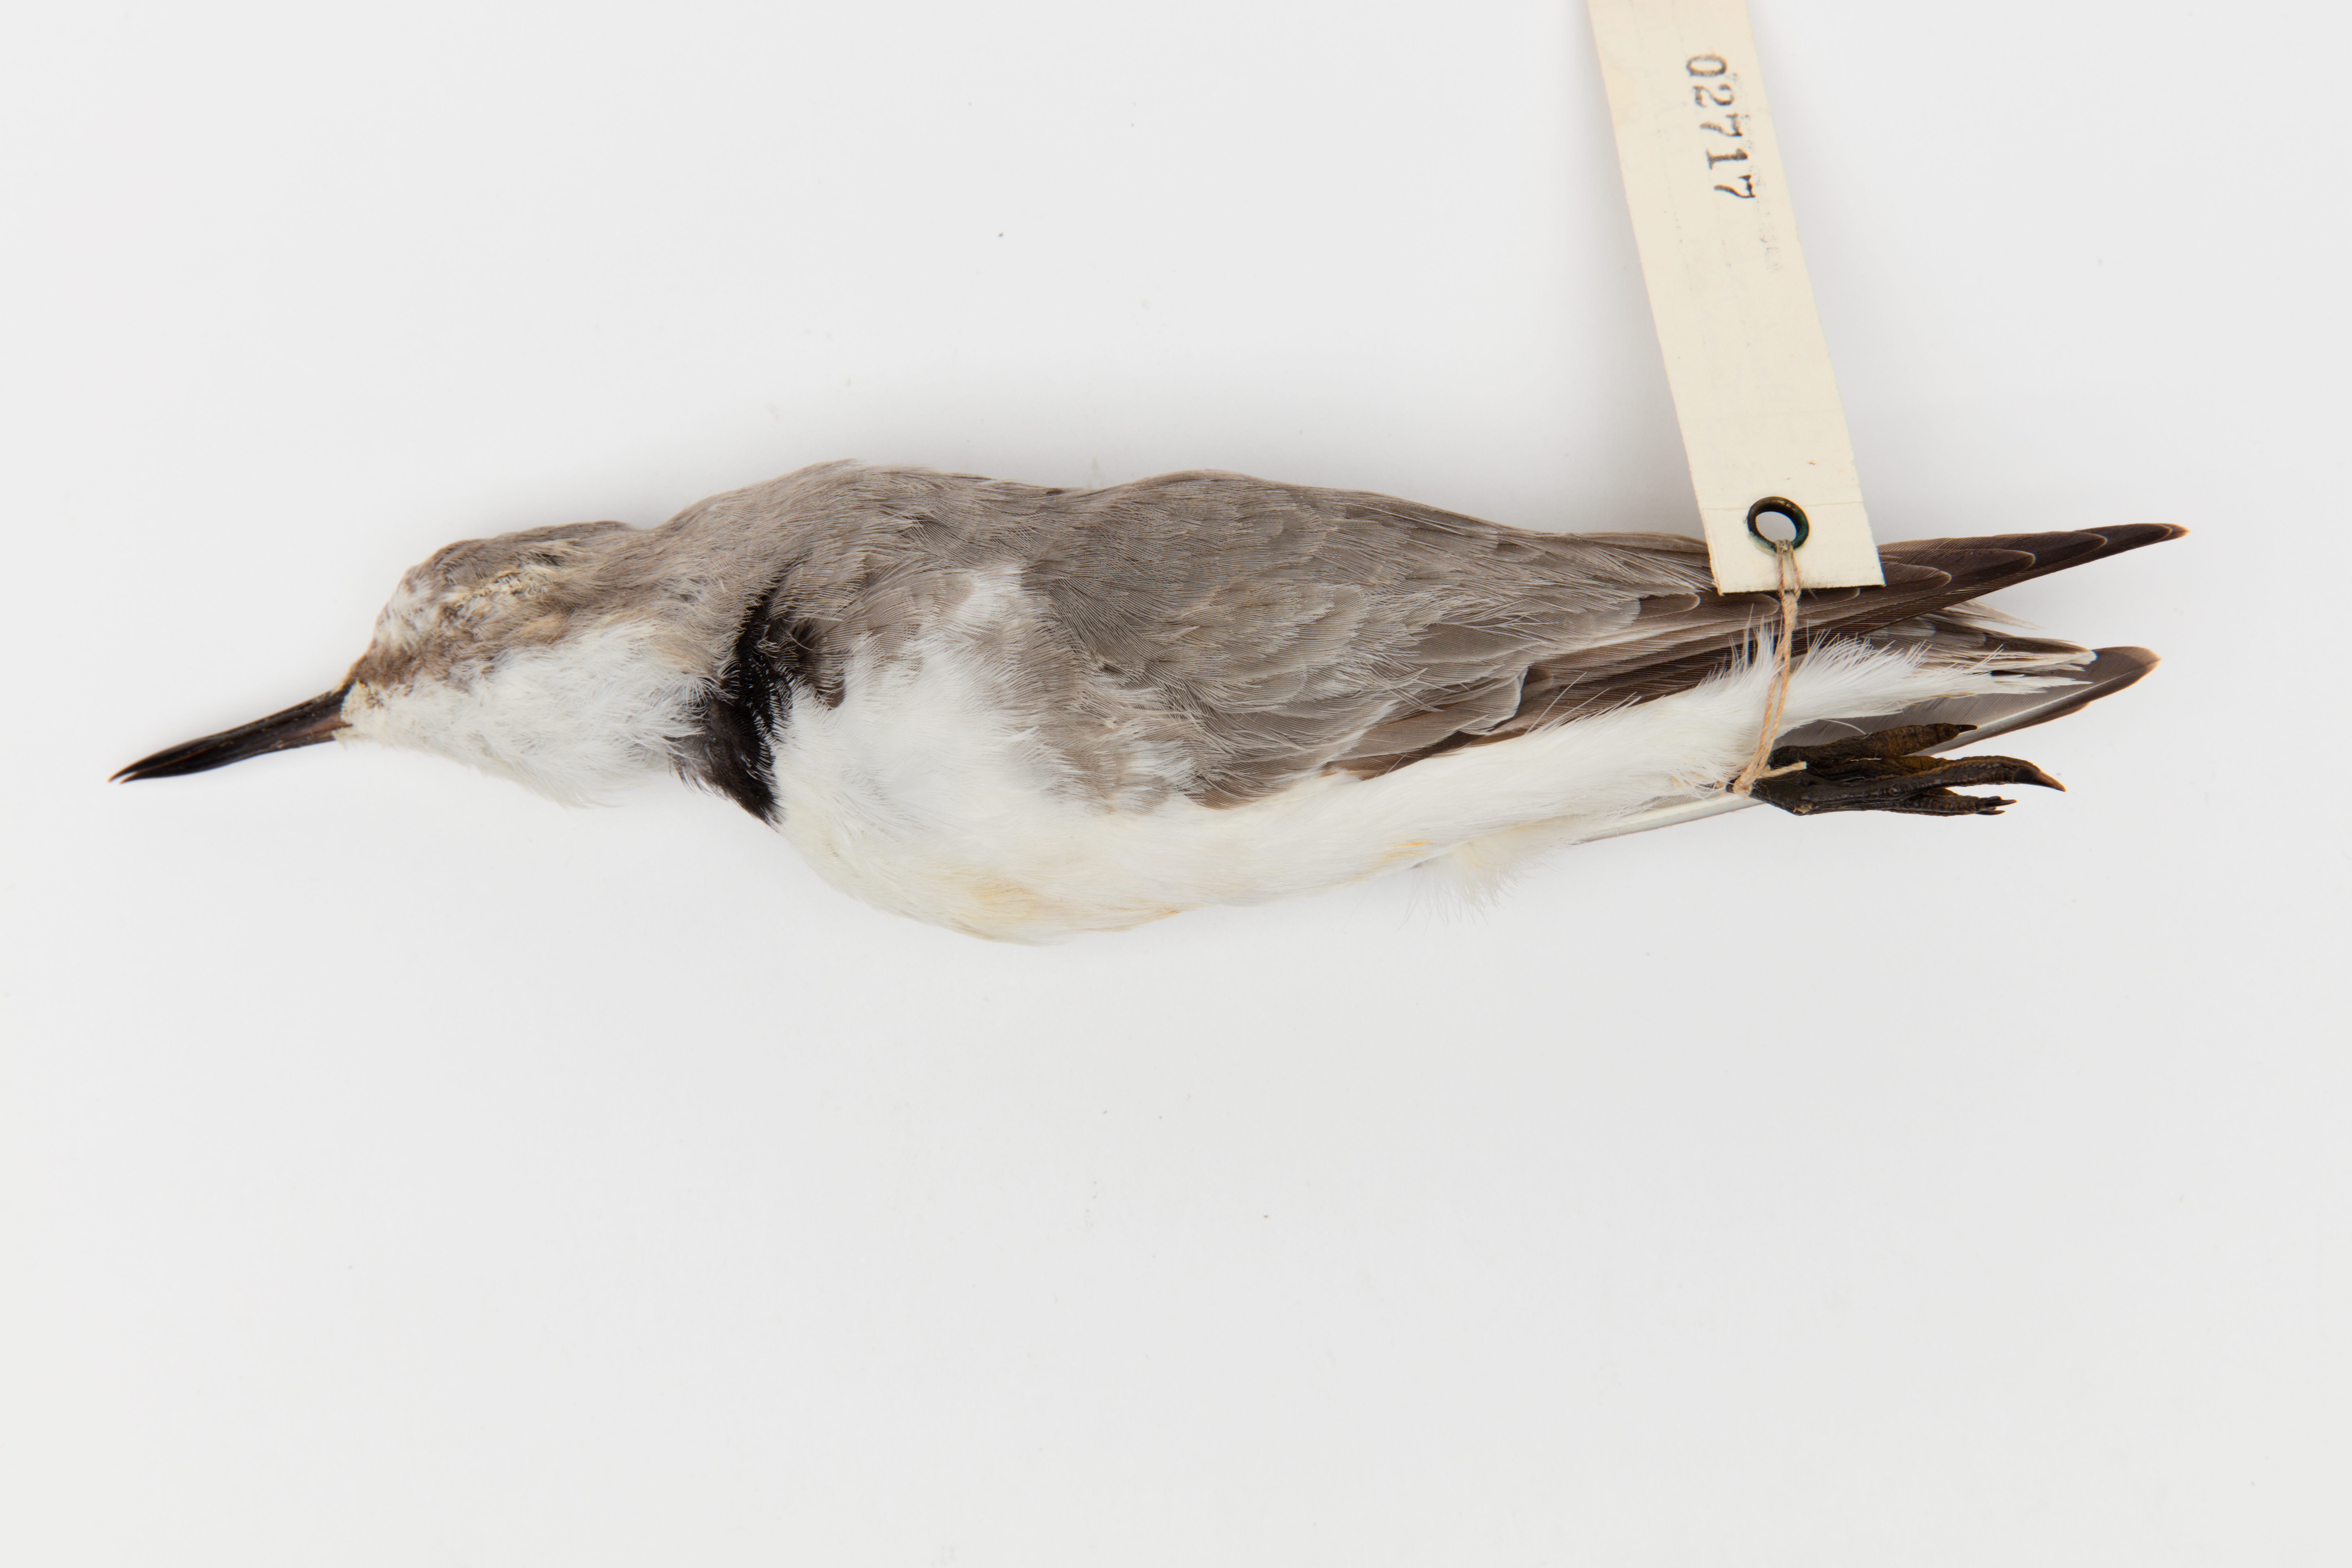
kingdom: Animalia
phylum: Chordata
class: Aves
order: Charadriiformes
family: Charadriidae
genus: Charadrius
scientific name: Charadrius frontalis
